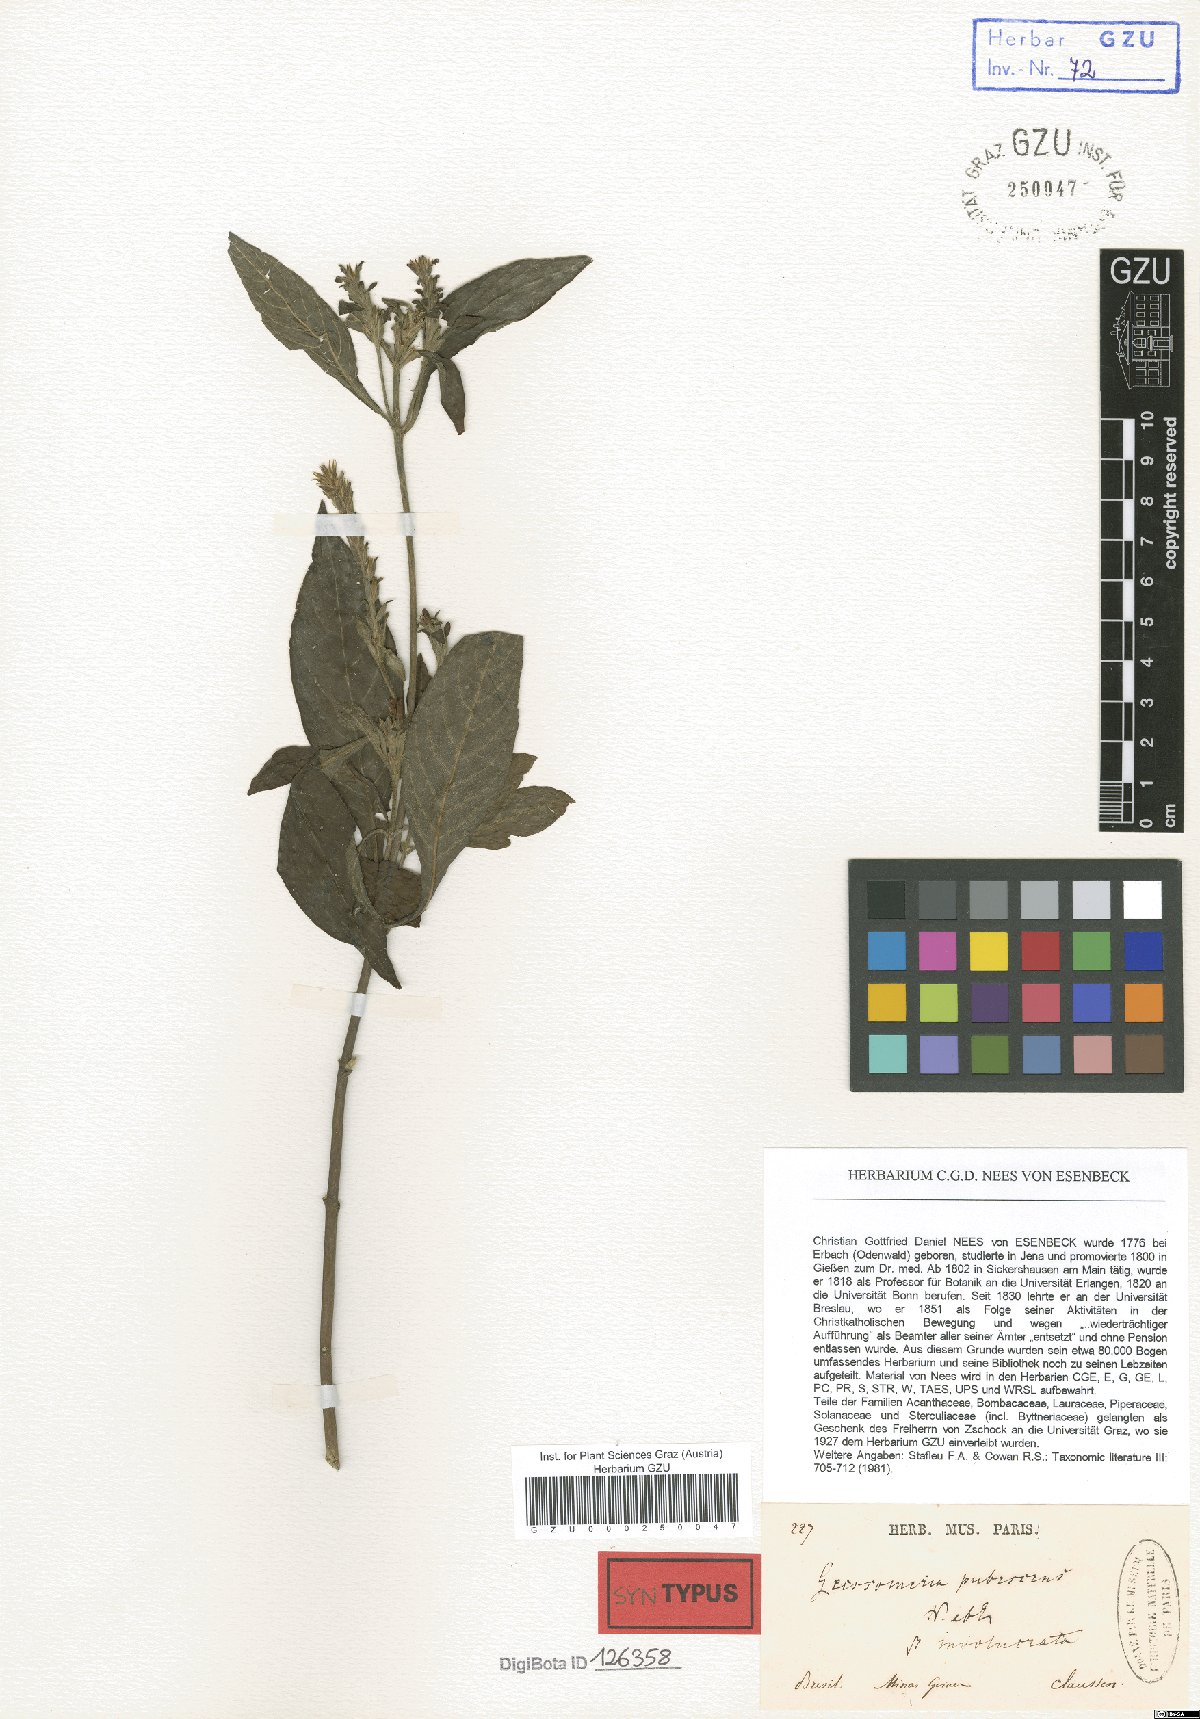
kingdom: Plantae
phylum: Tracheophyta
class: Magnoliopsida
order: Lamiales
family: Acanthaceae
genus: Aphelandra
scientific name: Aphelandra longiflora
